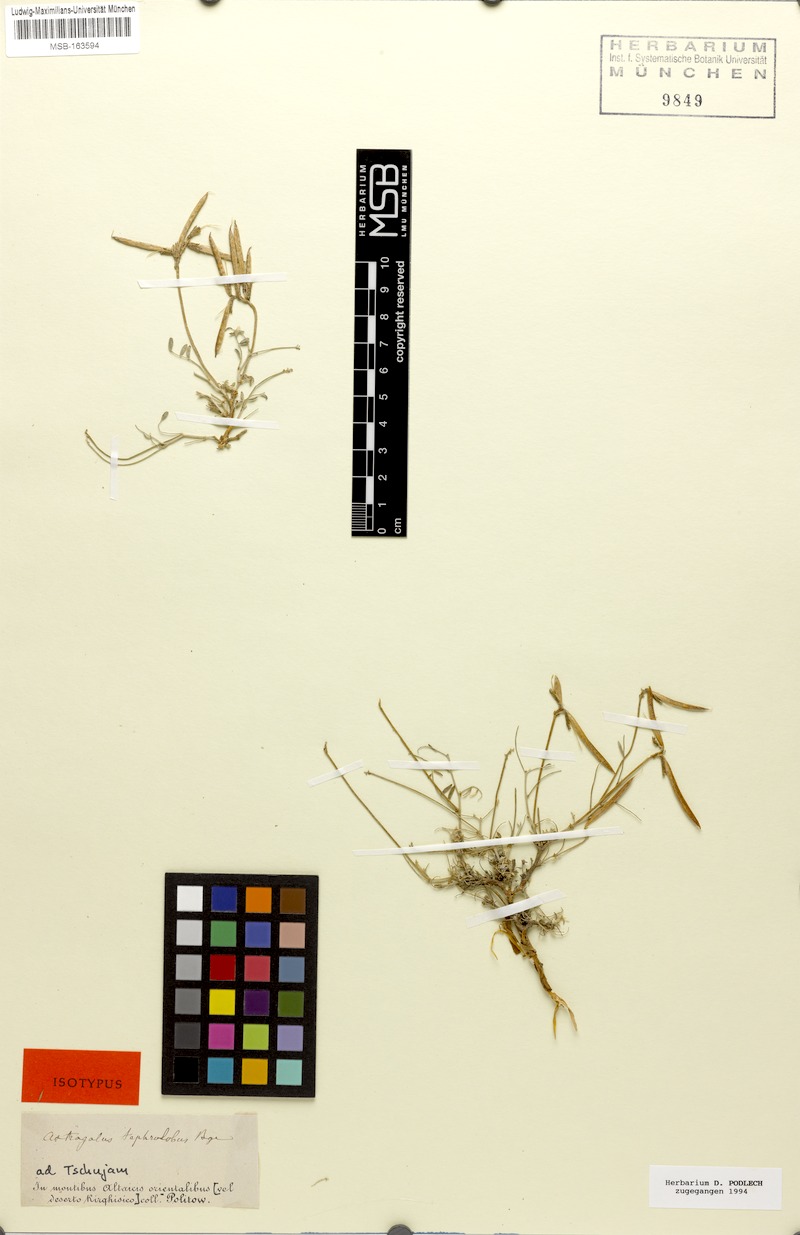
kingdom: Plantae
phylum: Tracheophyta
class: Magnoliopsida
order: Fabales
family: Fabaceae
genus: Astragalus
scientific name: Astragalus tephrolobus
